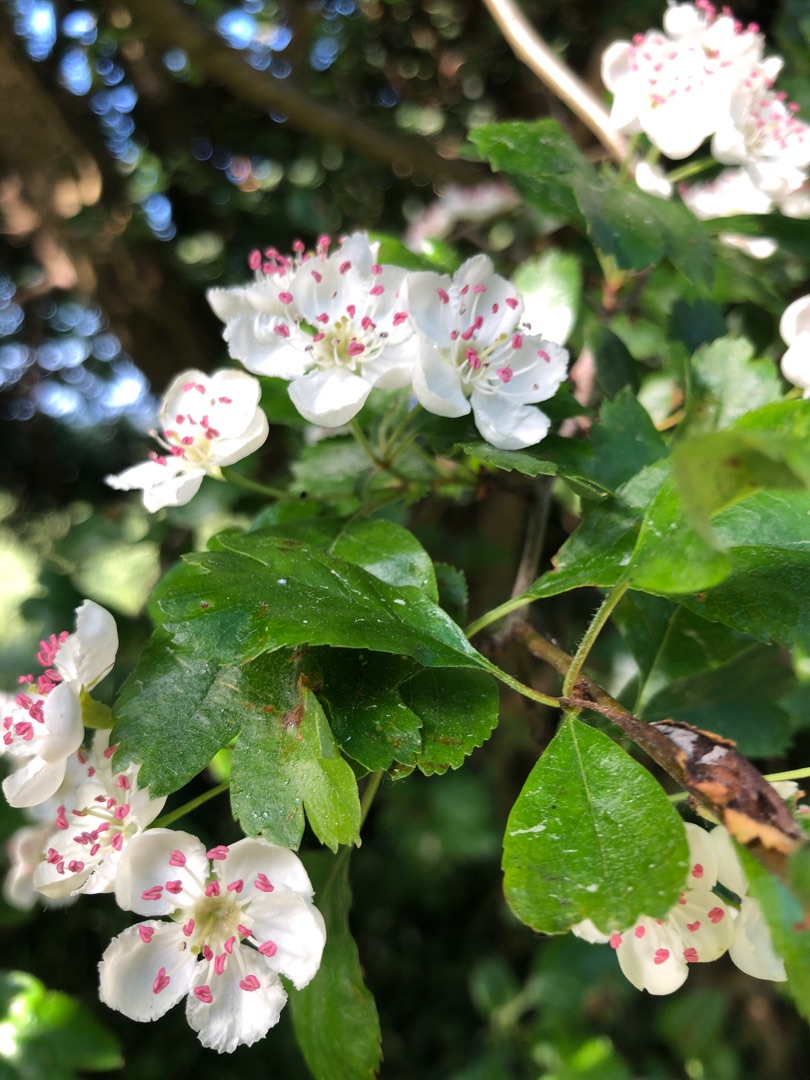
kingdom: Plantae
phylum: Tracheophyta
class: Magnoliopsida
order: Rosales
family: Rosaceae
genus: Crataegus
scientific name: Crataegus laevigata
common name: Almindelig hvidtjørn
